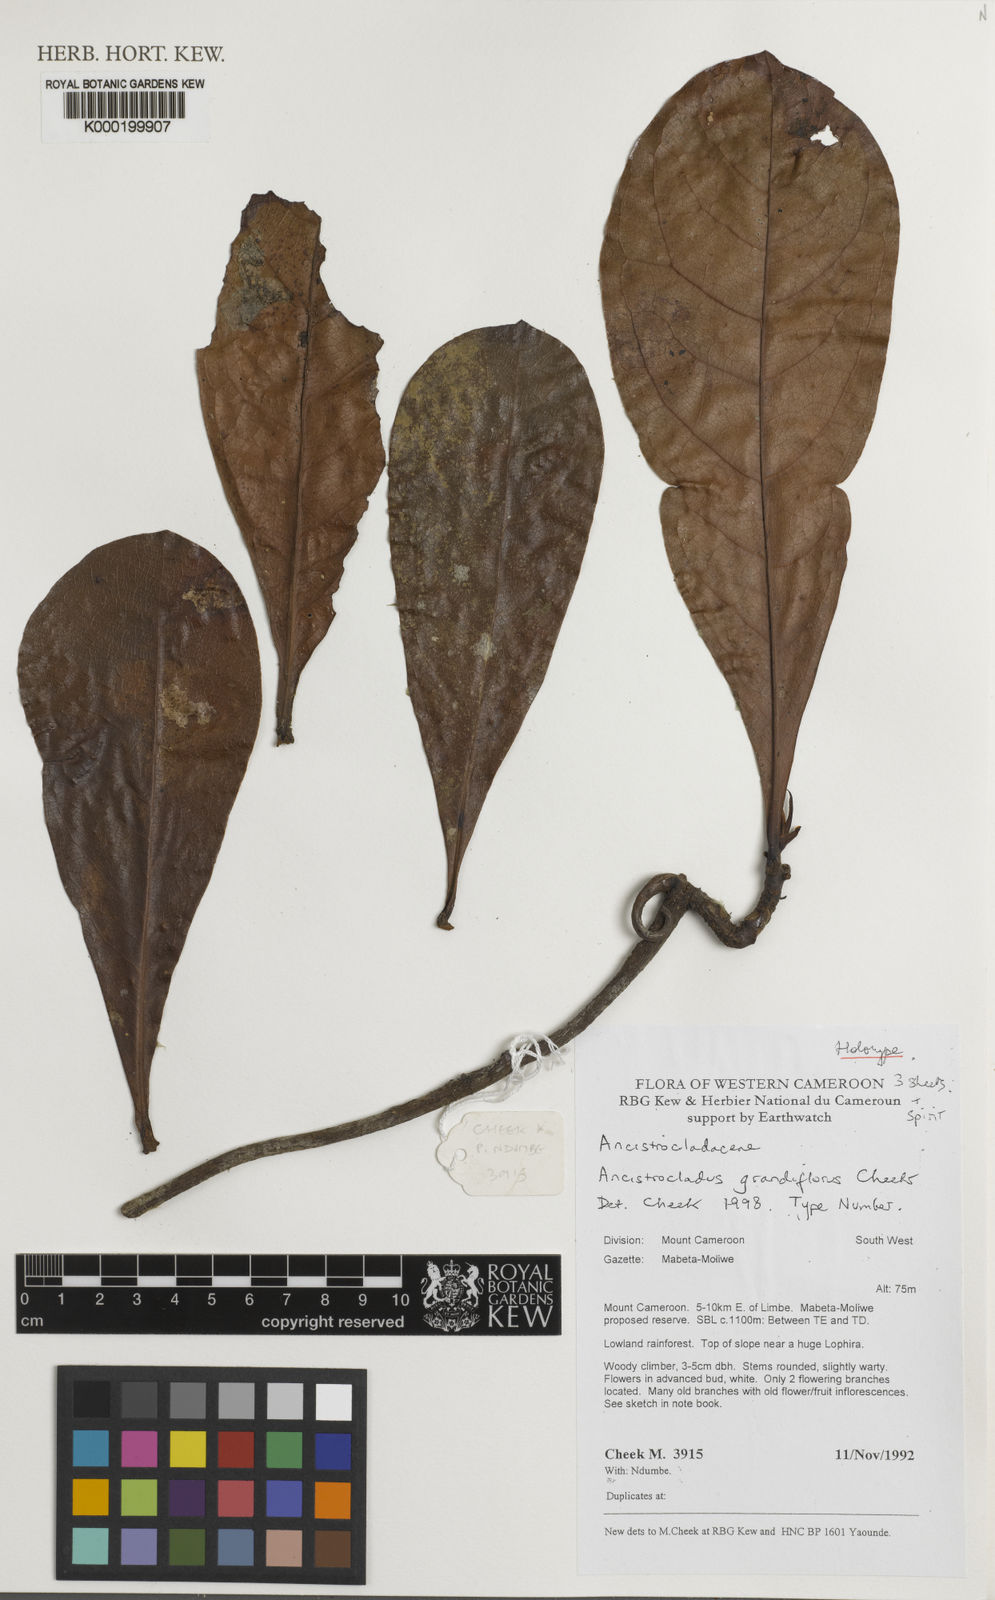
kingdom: Plantae
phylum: Tracheophyta
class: Magnoliopsida
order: Caryophyllales
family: Ancistrocladaceae
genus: Ancistrocladus
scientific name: Ancistrocladus grandiflorus
